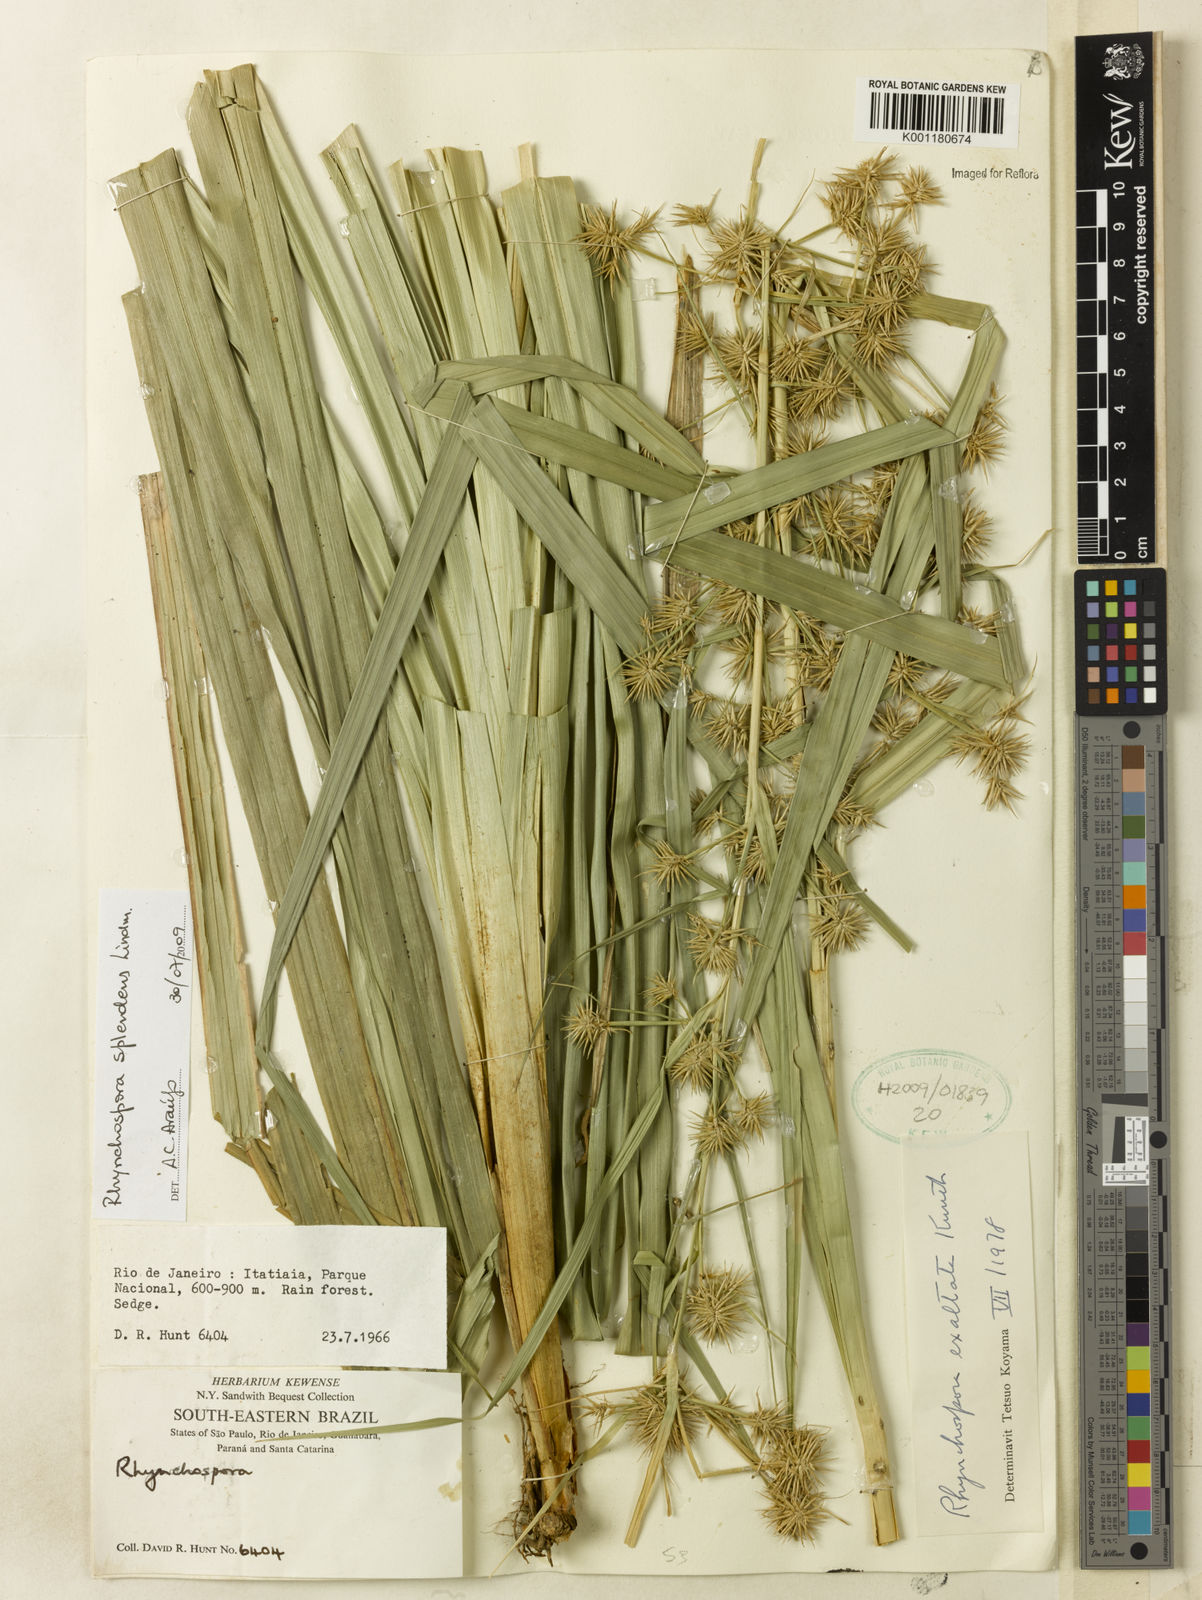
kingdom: Plantae
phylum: Tracheophyta
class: Liliopsida
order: Poales
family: Cyperaceae
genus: Rhynchospora
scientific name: Rhynchospora splendens
